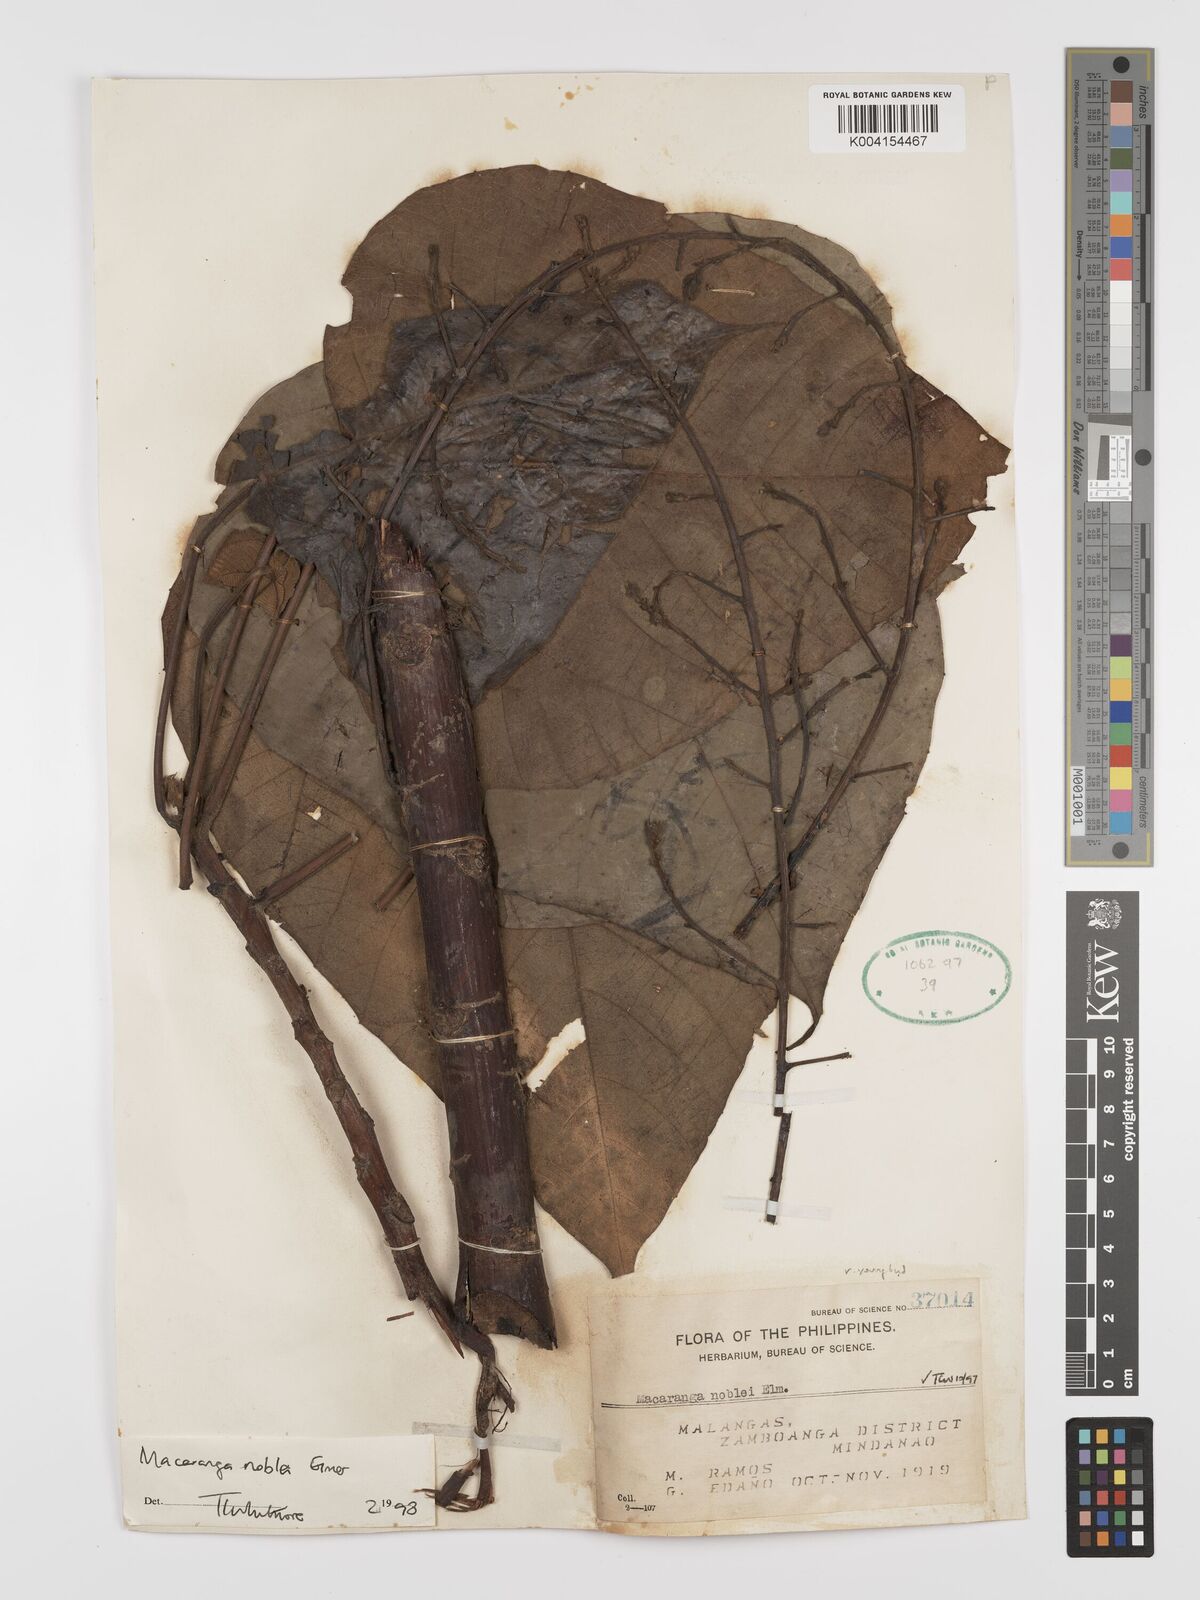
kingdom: Plantae
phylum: Tracheophyta
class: Magnoliopsida
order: Malpighiales
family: Euphorbiaceae
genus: Macaranga
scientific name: Macaranga noblei
